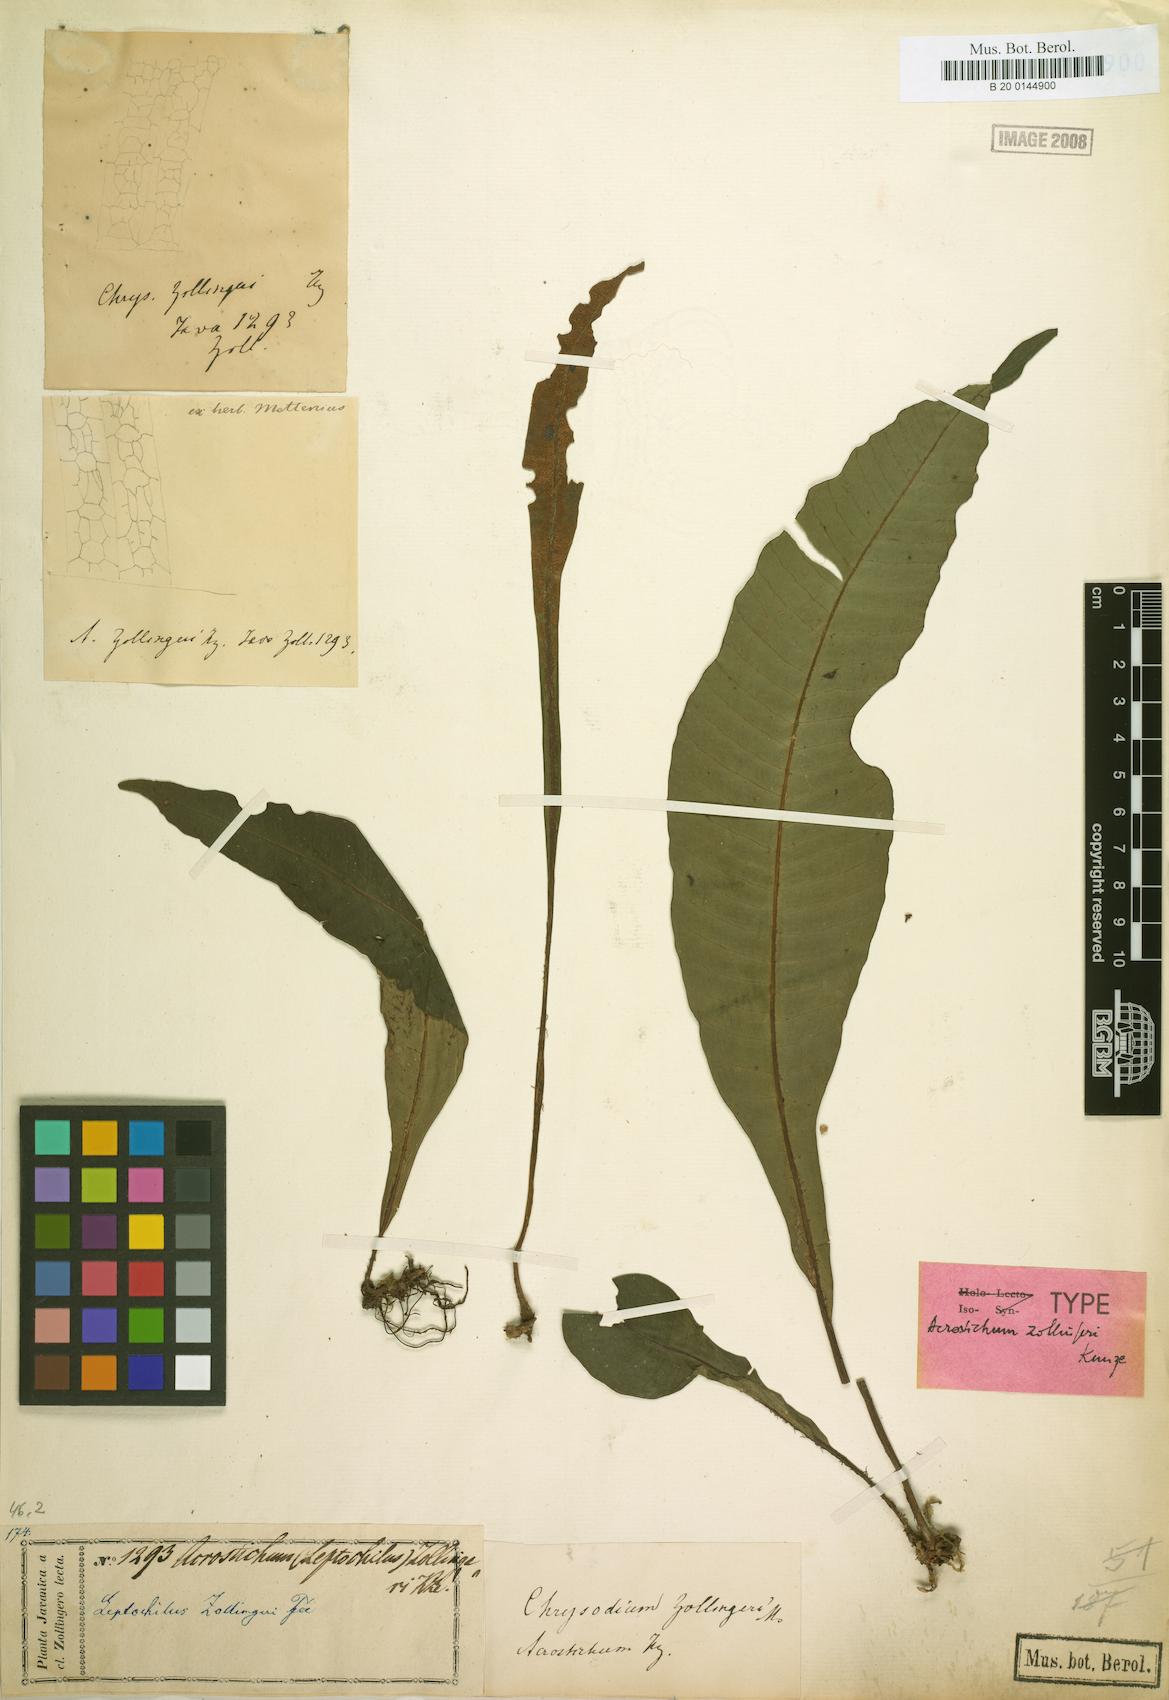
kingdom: Plantae
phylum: Tracheophyta
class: Polypodiopsida
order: Polypodiales
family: Dryopteridaceae
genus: Bolbitis
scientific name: Bolbitis sinuata
